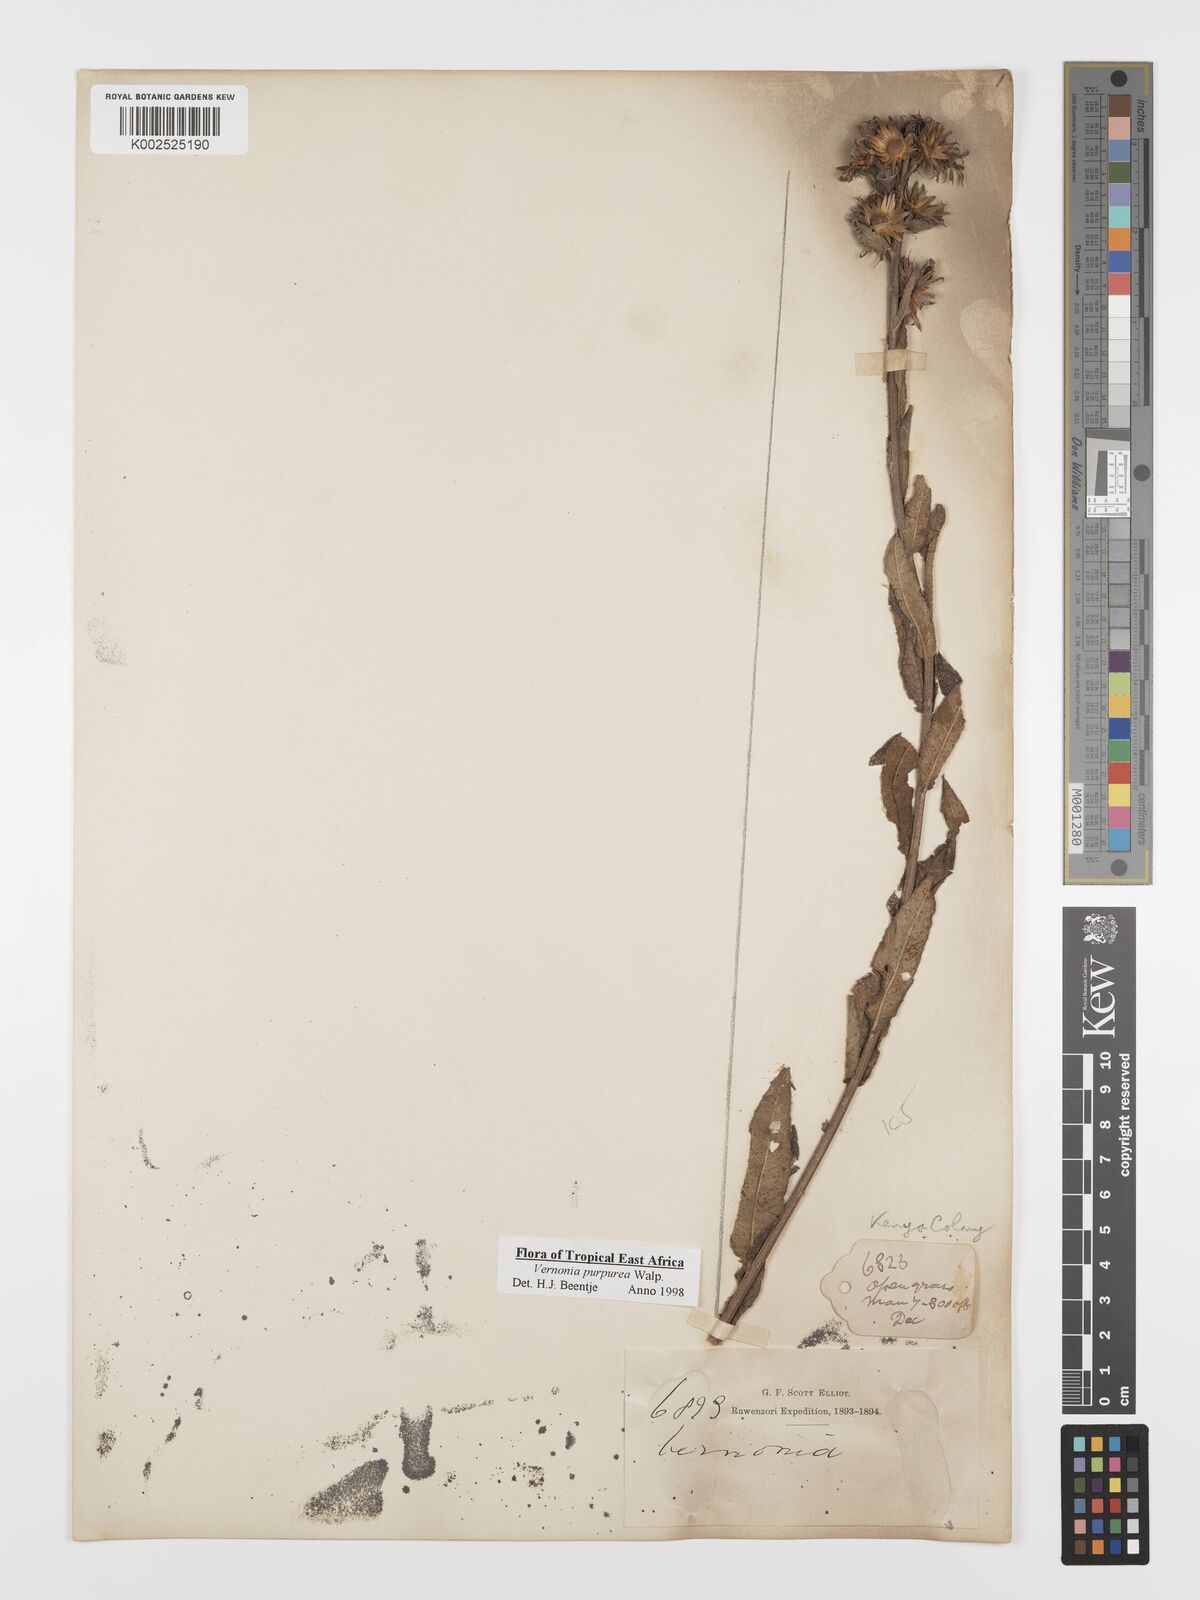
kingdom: Plantae
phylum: Tracheophyta
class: Magnoliopsida
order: Asterales
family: Asteraceae
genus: Nothovernonia
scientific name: Nothovernonia purpurea
